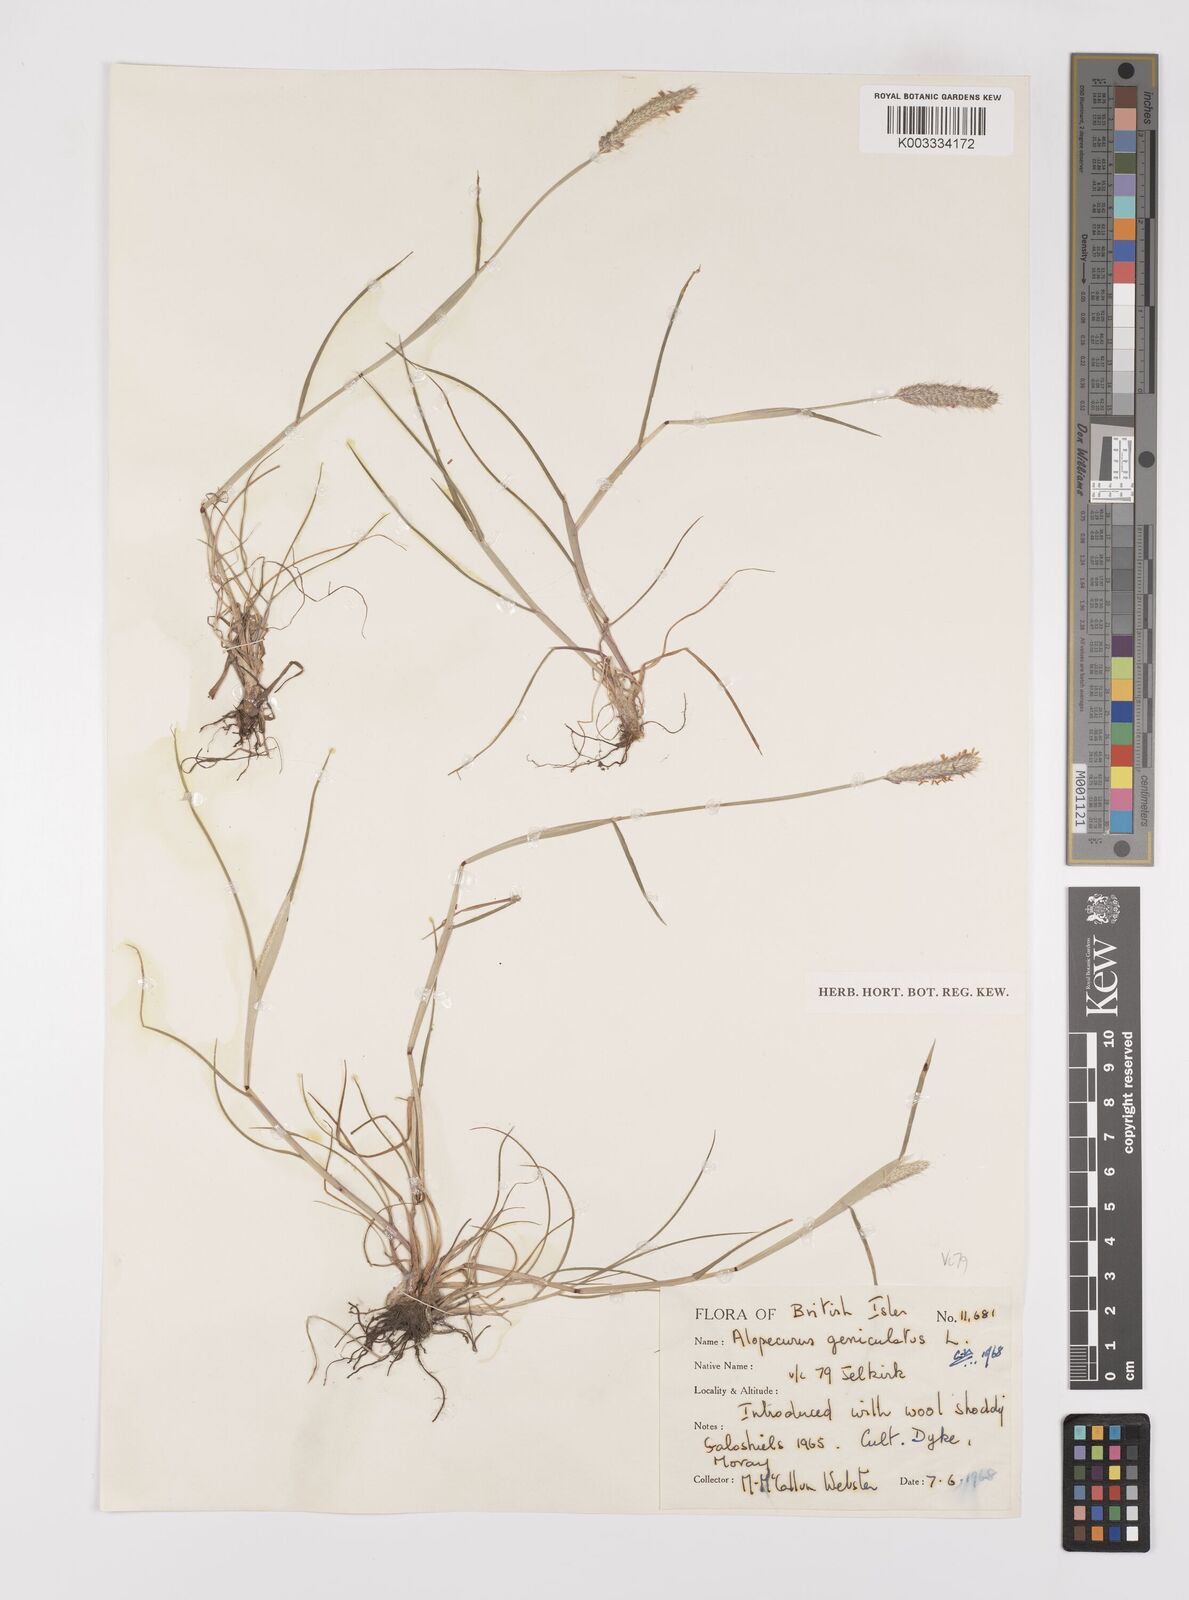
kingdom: Plantae
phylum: Tracheophyta
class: Liliopsida
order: Poales
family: Poaceae
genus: Alopecurus
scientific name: Alopecurus geniculatus
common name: Water foxtail
